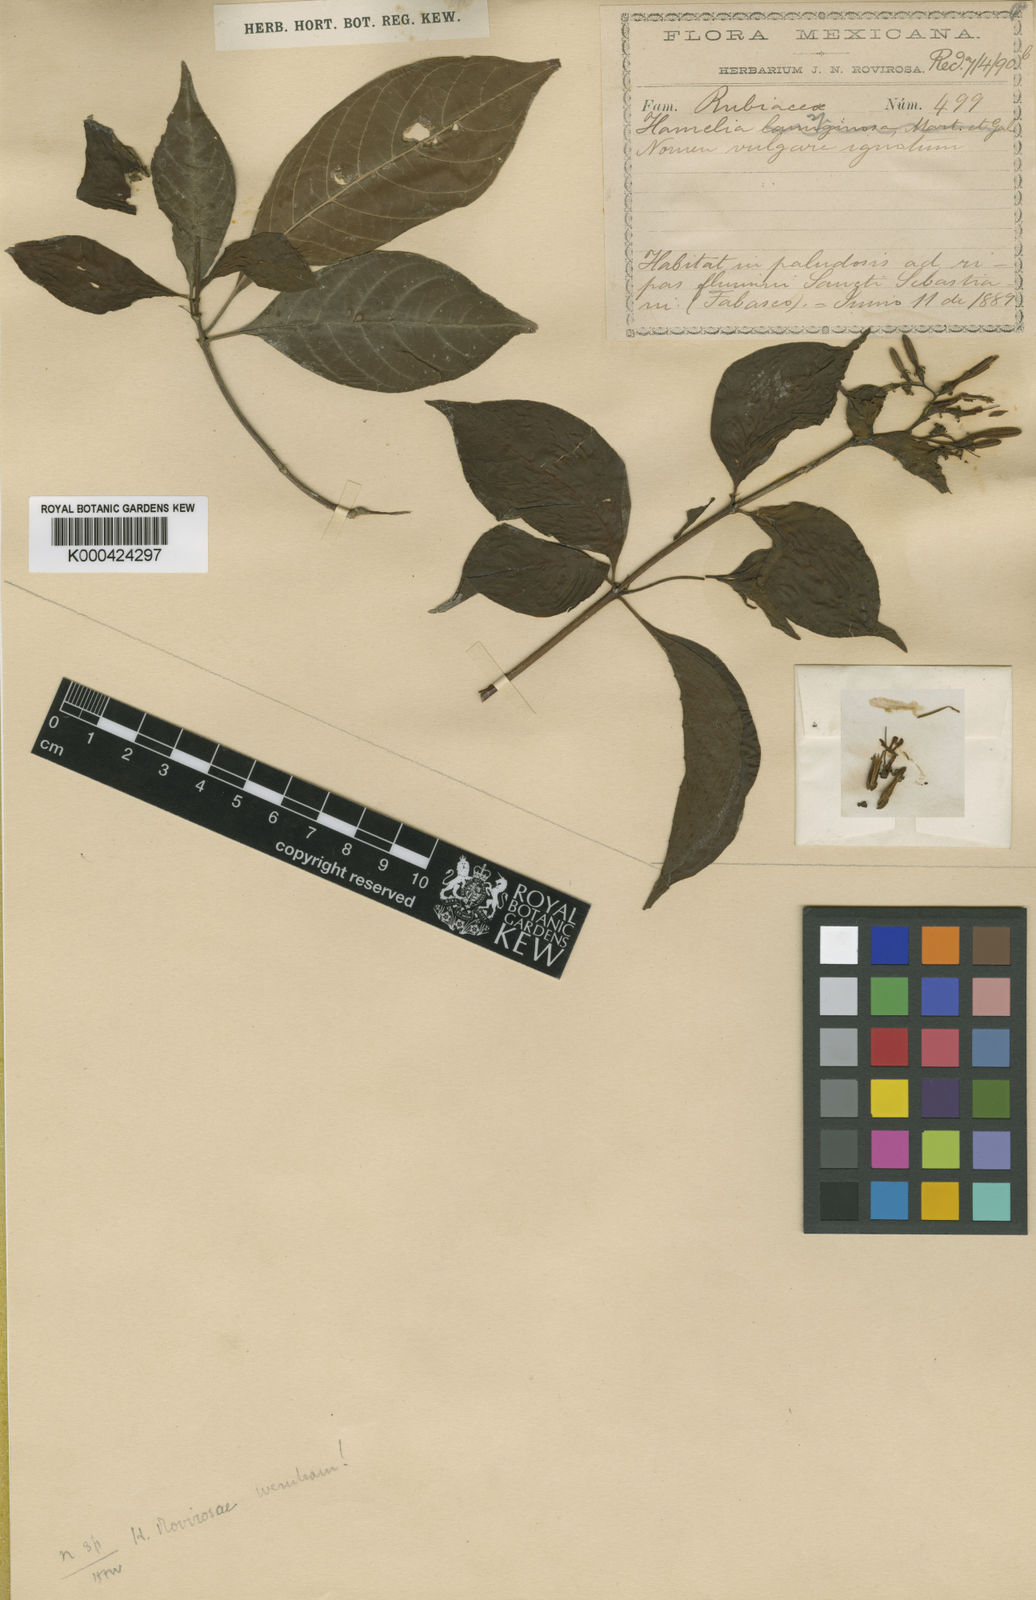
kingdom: Plantae
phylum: Tracheophyta
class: Magnoliopsida
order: Gentianales
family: Rubiaceae
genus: Hamelia
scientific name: Hamelia rovirosae
